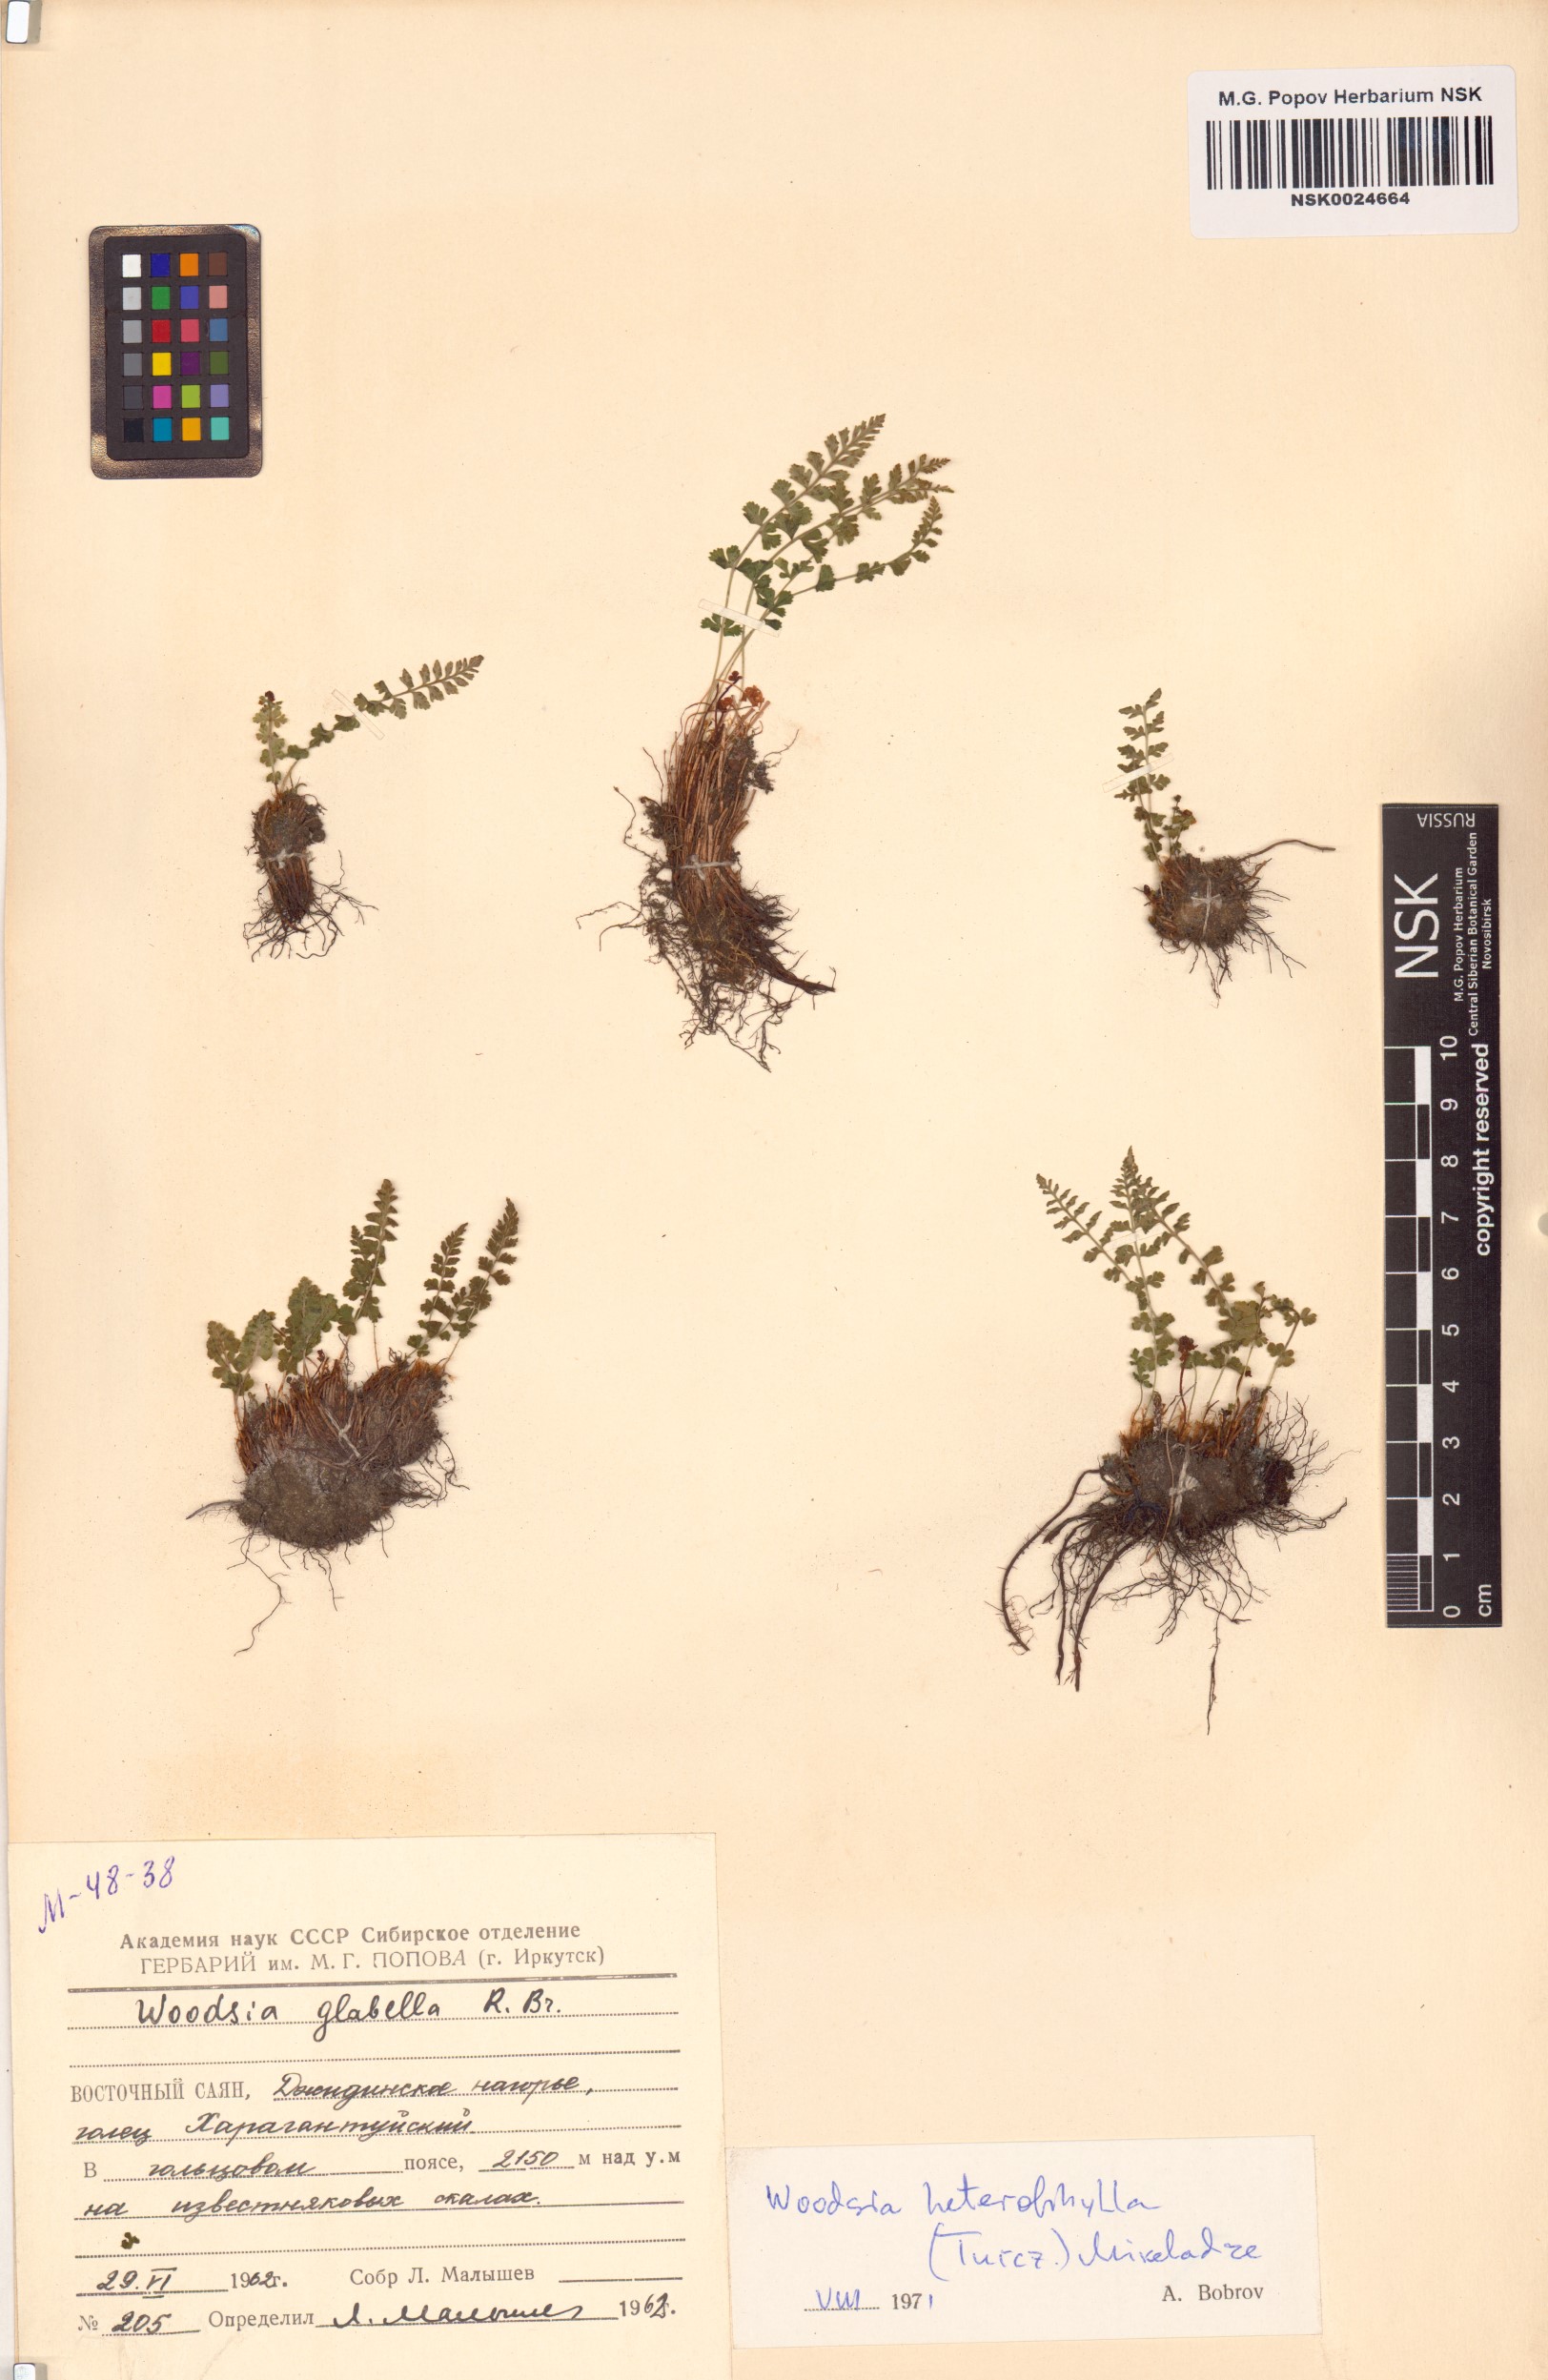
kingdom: Plantae
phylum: Tracheophyta
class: Polypodiopsida
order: Polypodiales
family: Woodsiaceae
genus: Woodsia
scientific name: Woodsia pulchella
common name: Graceful woodsia
